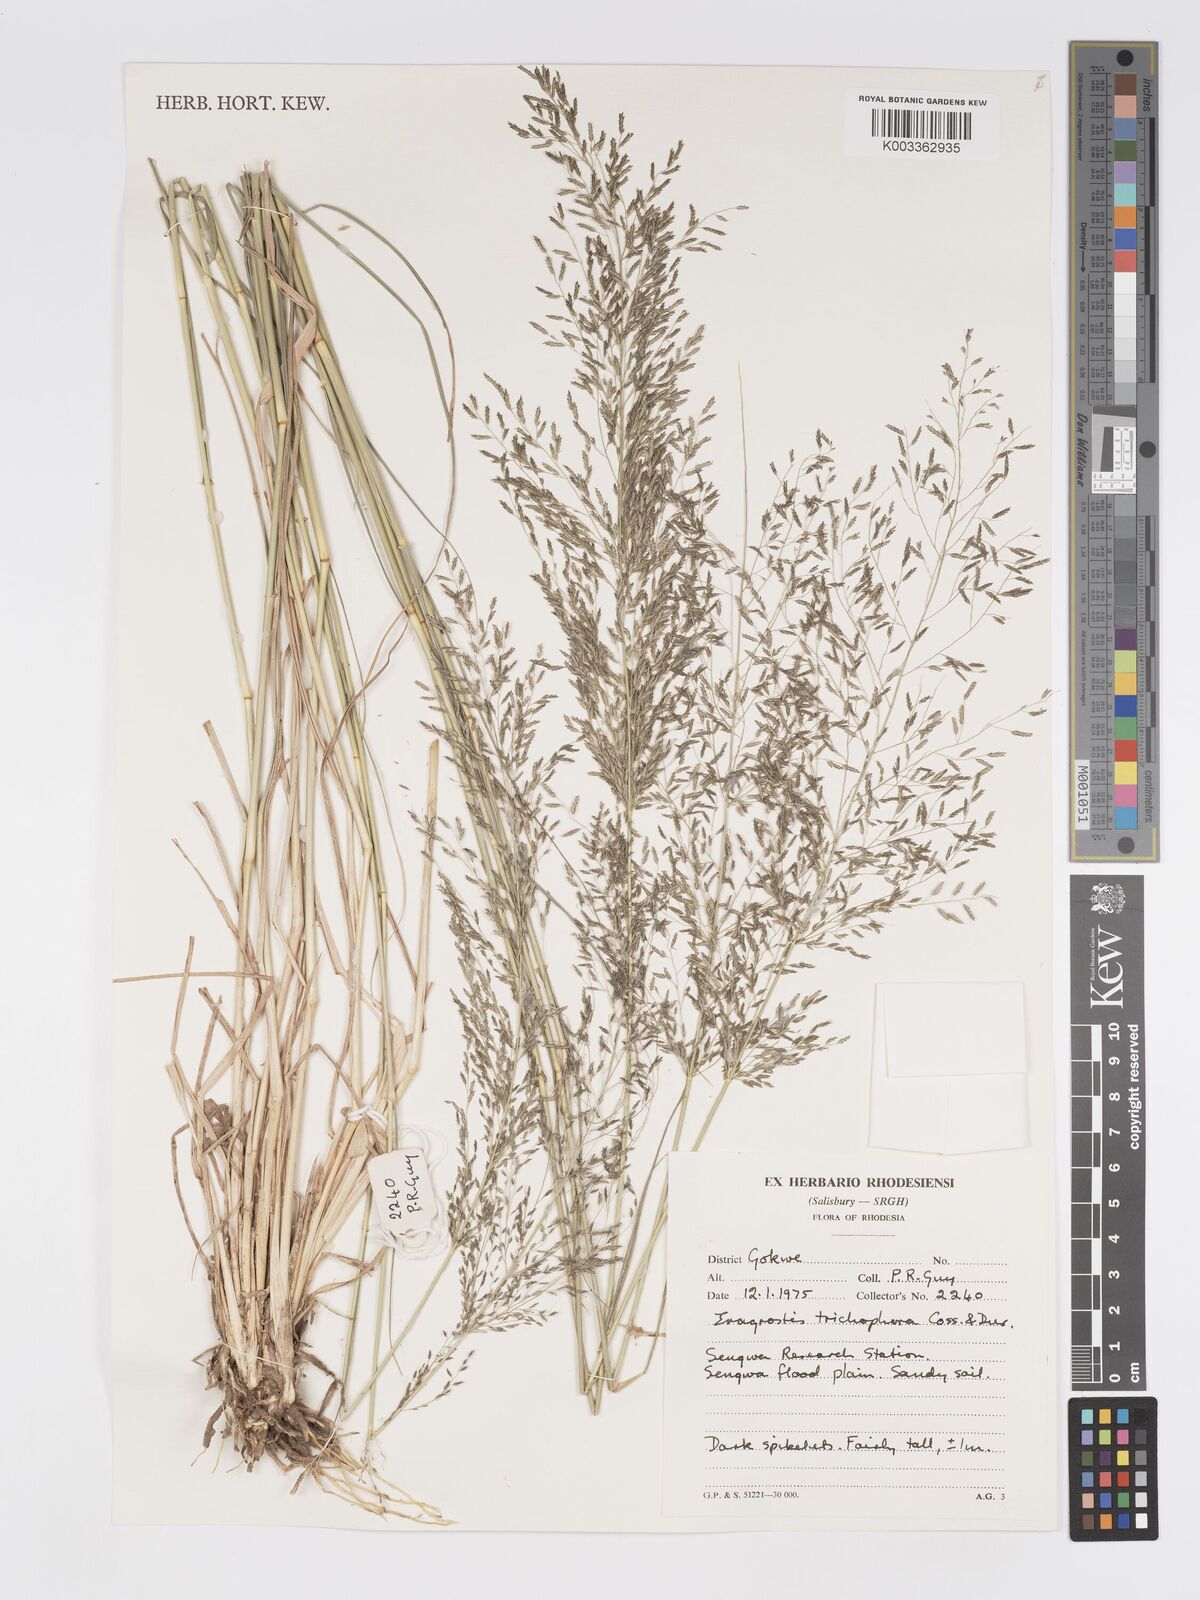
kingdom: Plantae
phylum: Tracheophyta
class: Liliopsida
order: Poales
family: Poaceae
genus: Eragrostis
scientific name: Eragrostis cylindriflora
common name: Cylinderflower lovegrass
